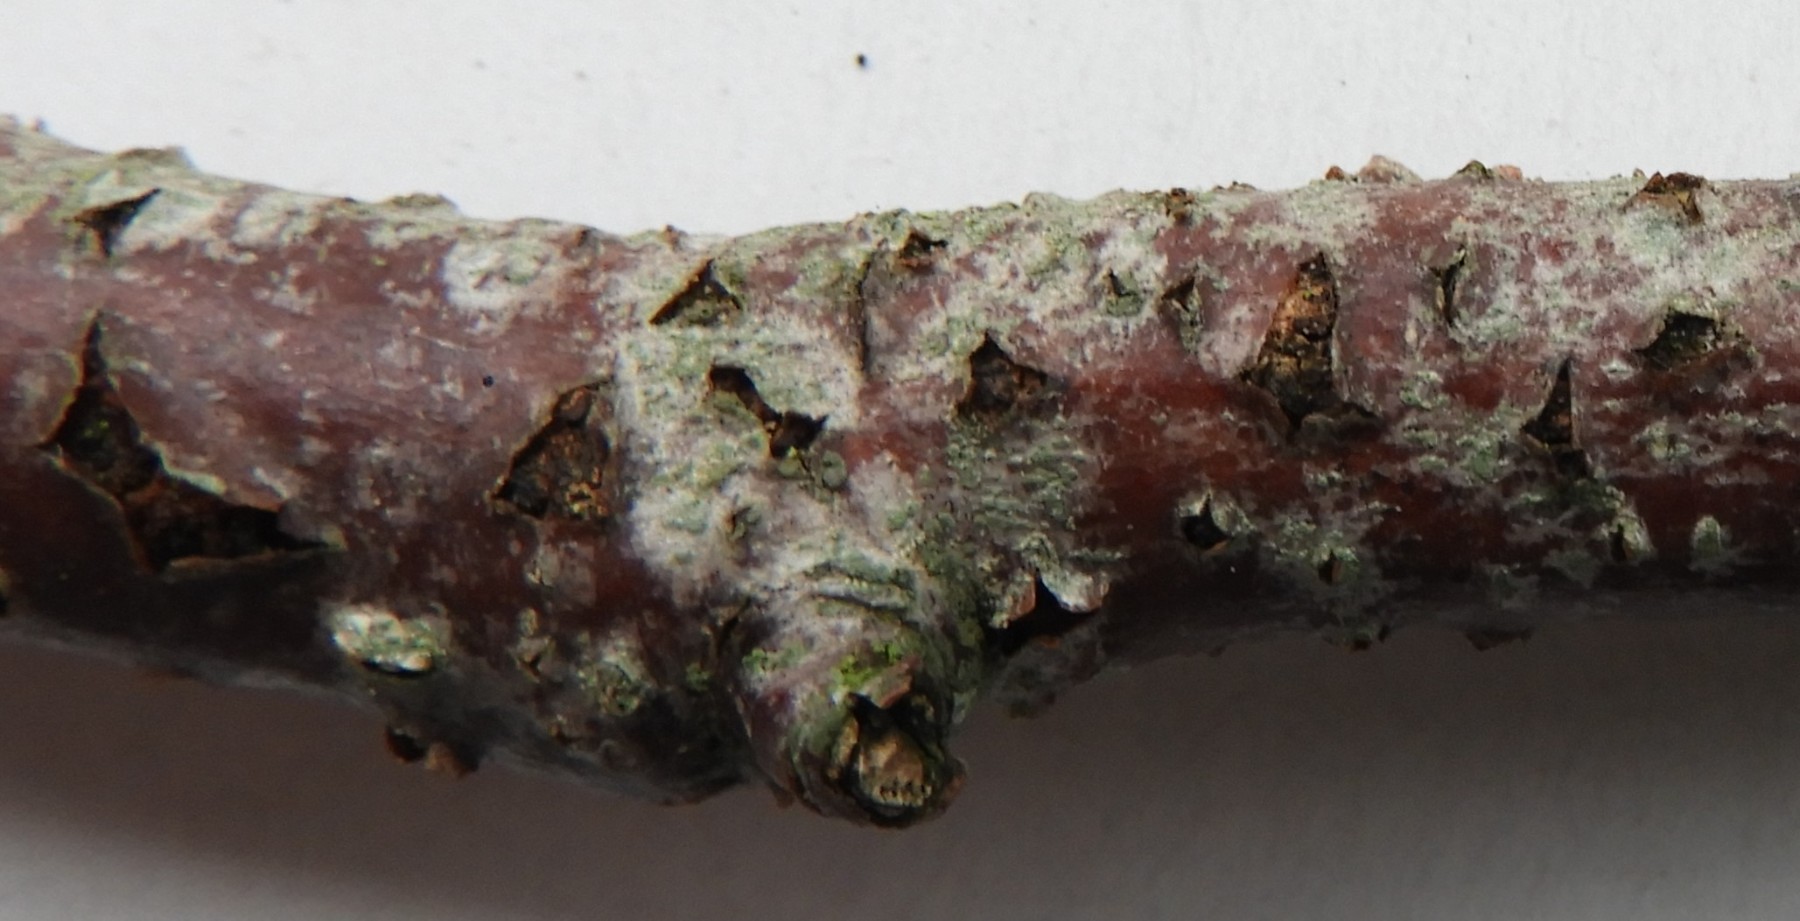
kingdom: Fungi
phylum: Ascomycota
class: Dothideomycetes
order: Pleosporales
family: Melanommataceae
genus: Melanomma
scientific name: Melanomma
